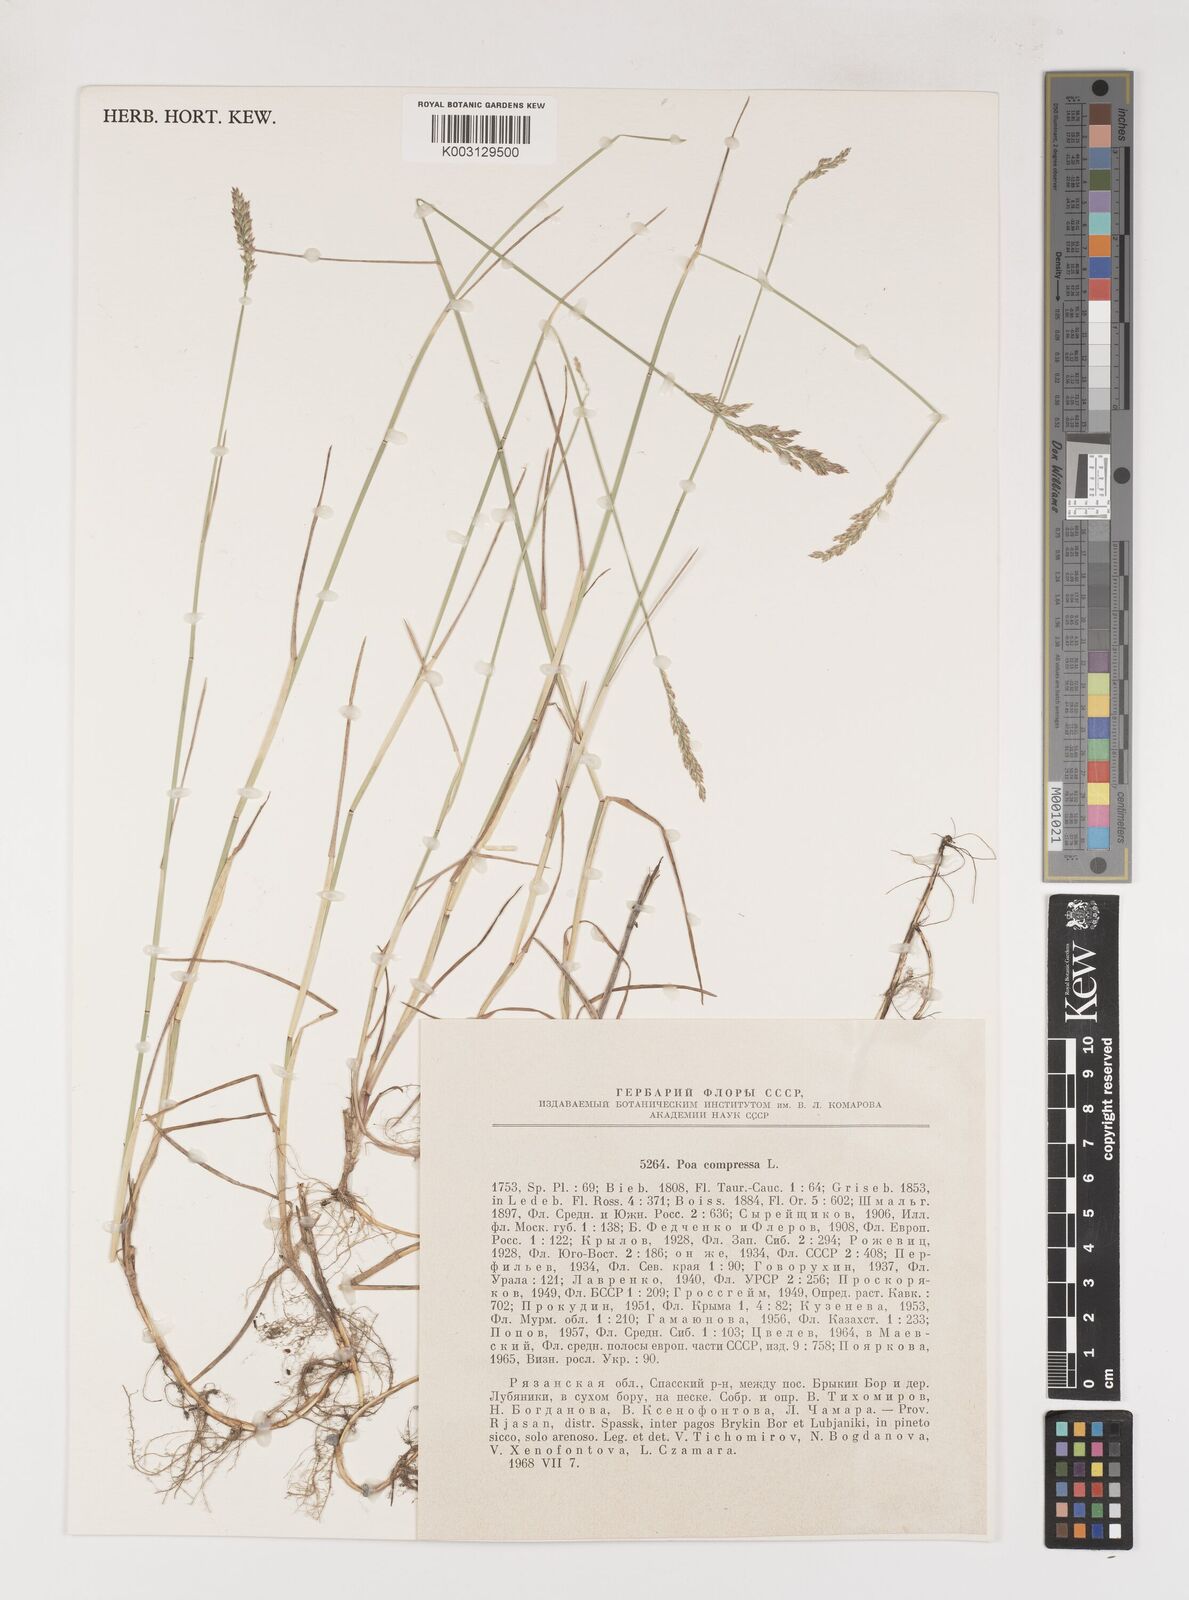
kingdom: Plantae
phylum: Tracheophyta
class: Liliopsida
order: Poales
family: Poaceae
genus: Poa
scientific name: Poa compressa
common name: Canada bluegrass
